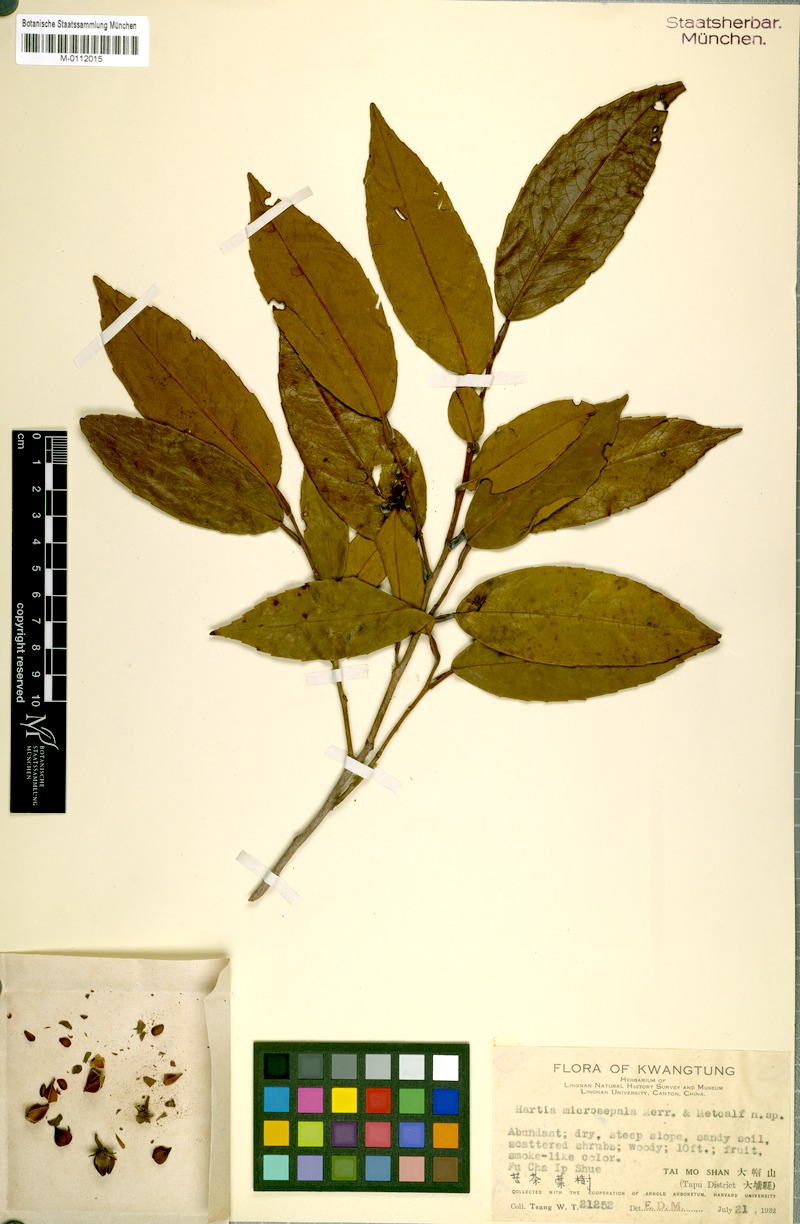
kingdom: Plantae
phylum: Tracheophyta
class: Magnoliopsida
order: Ericales
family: Theaceae
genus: Stewartia
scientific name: Stewartia
